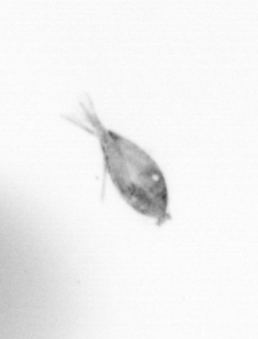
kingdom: Animalia
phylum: Arthropoda
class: Copepoda
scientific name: Copepoda
